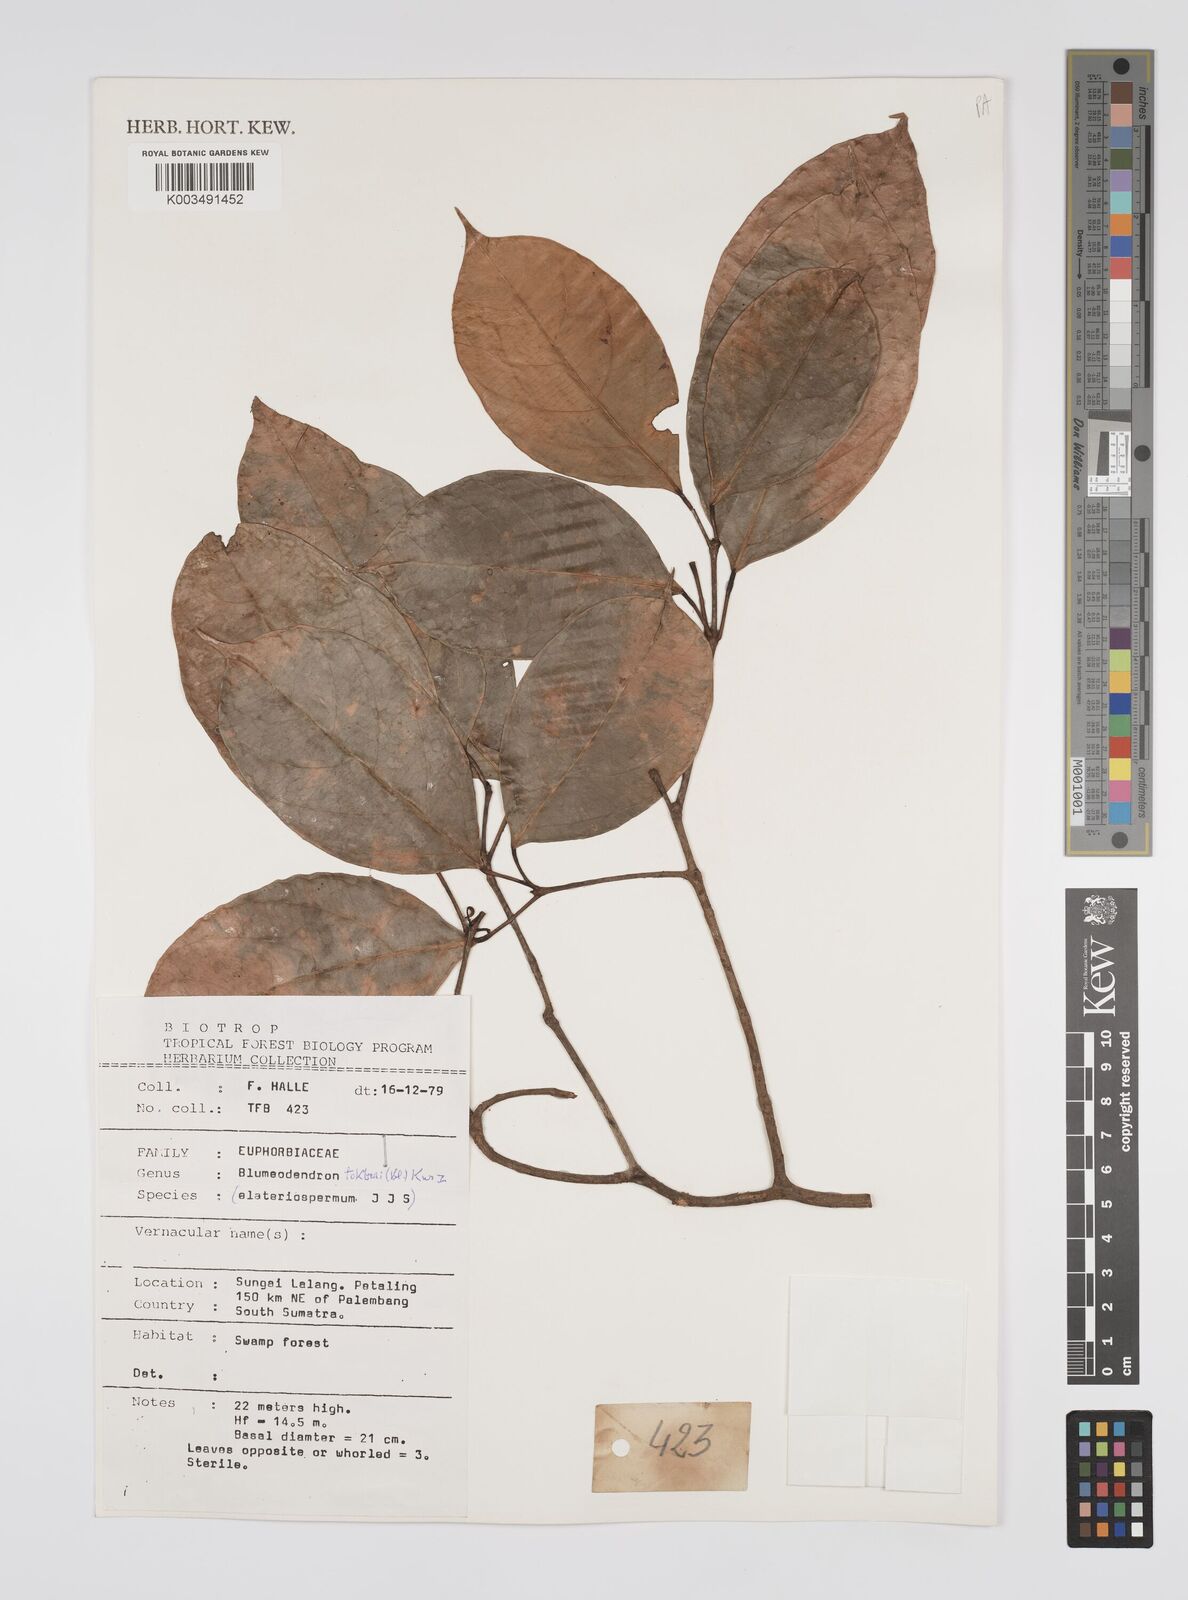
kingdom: Plantae
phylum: Tracheophyta
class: Magnoliopsida
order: Malpighiales
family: Euphorbiaceae
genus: Blumeodendron
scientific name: Blumeodendron tokbrai
